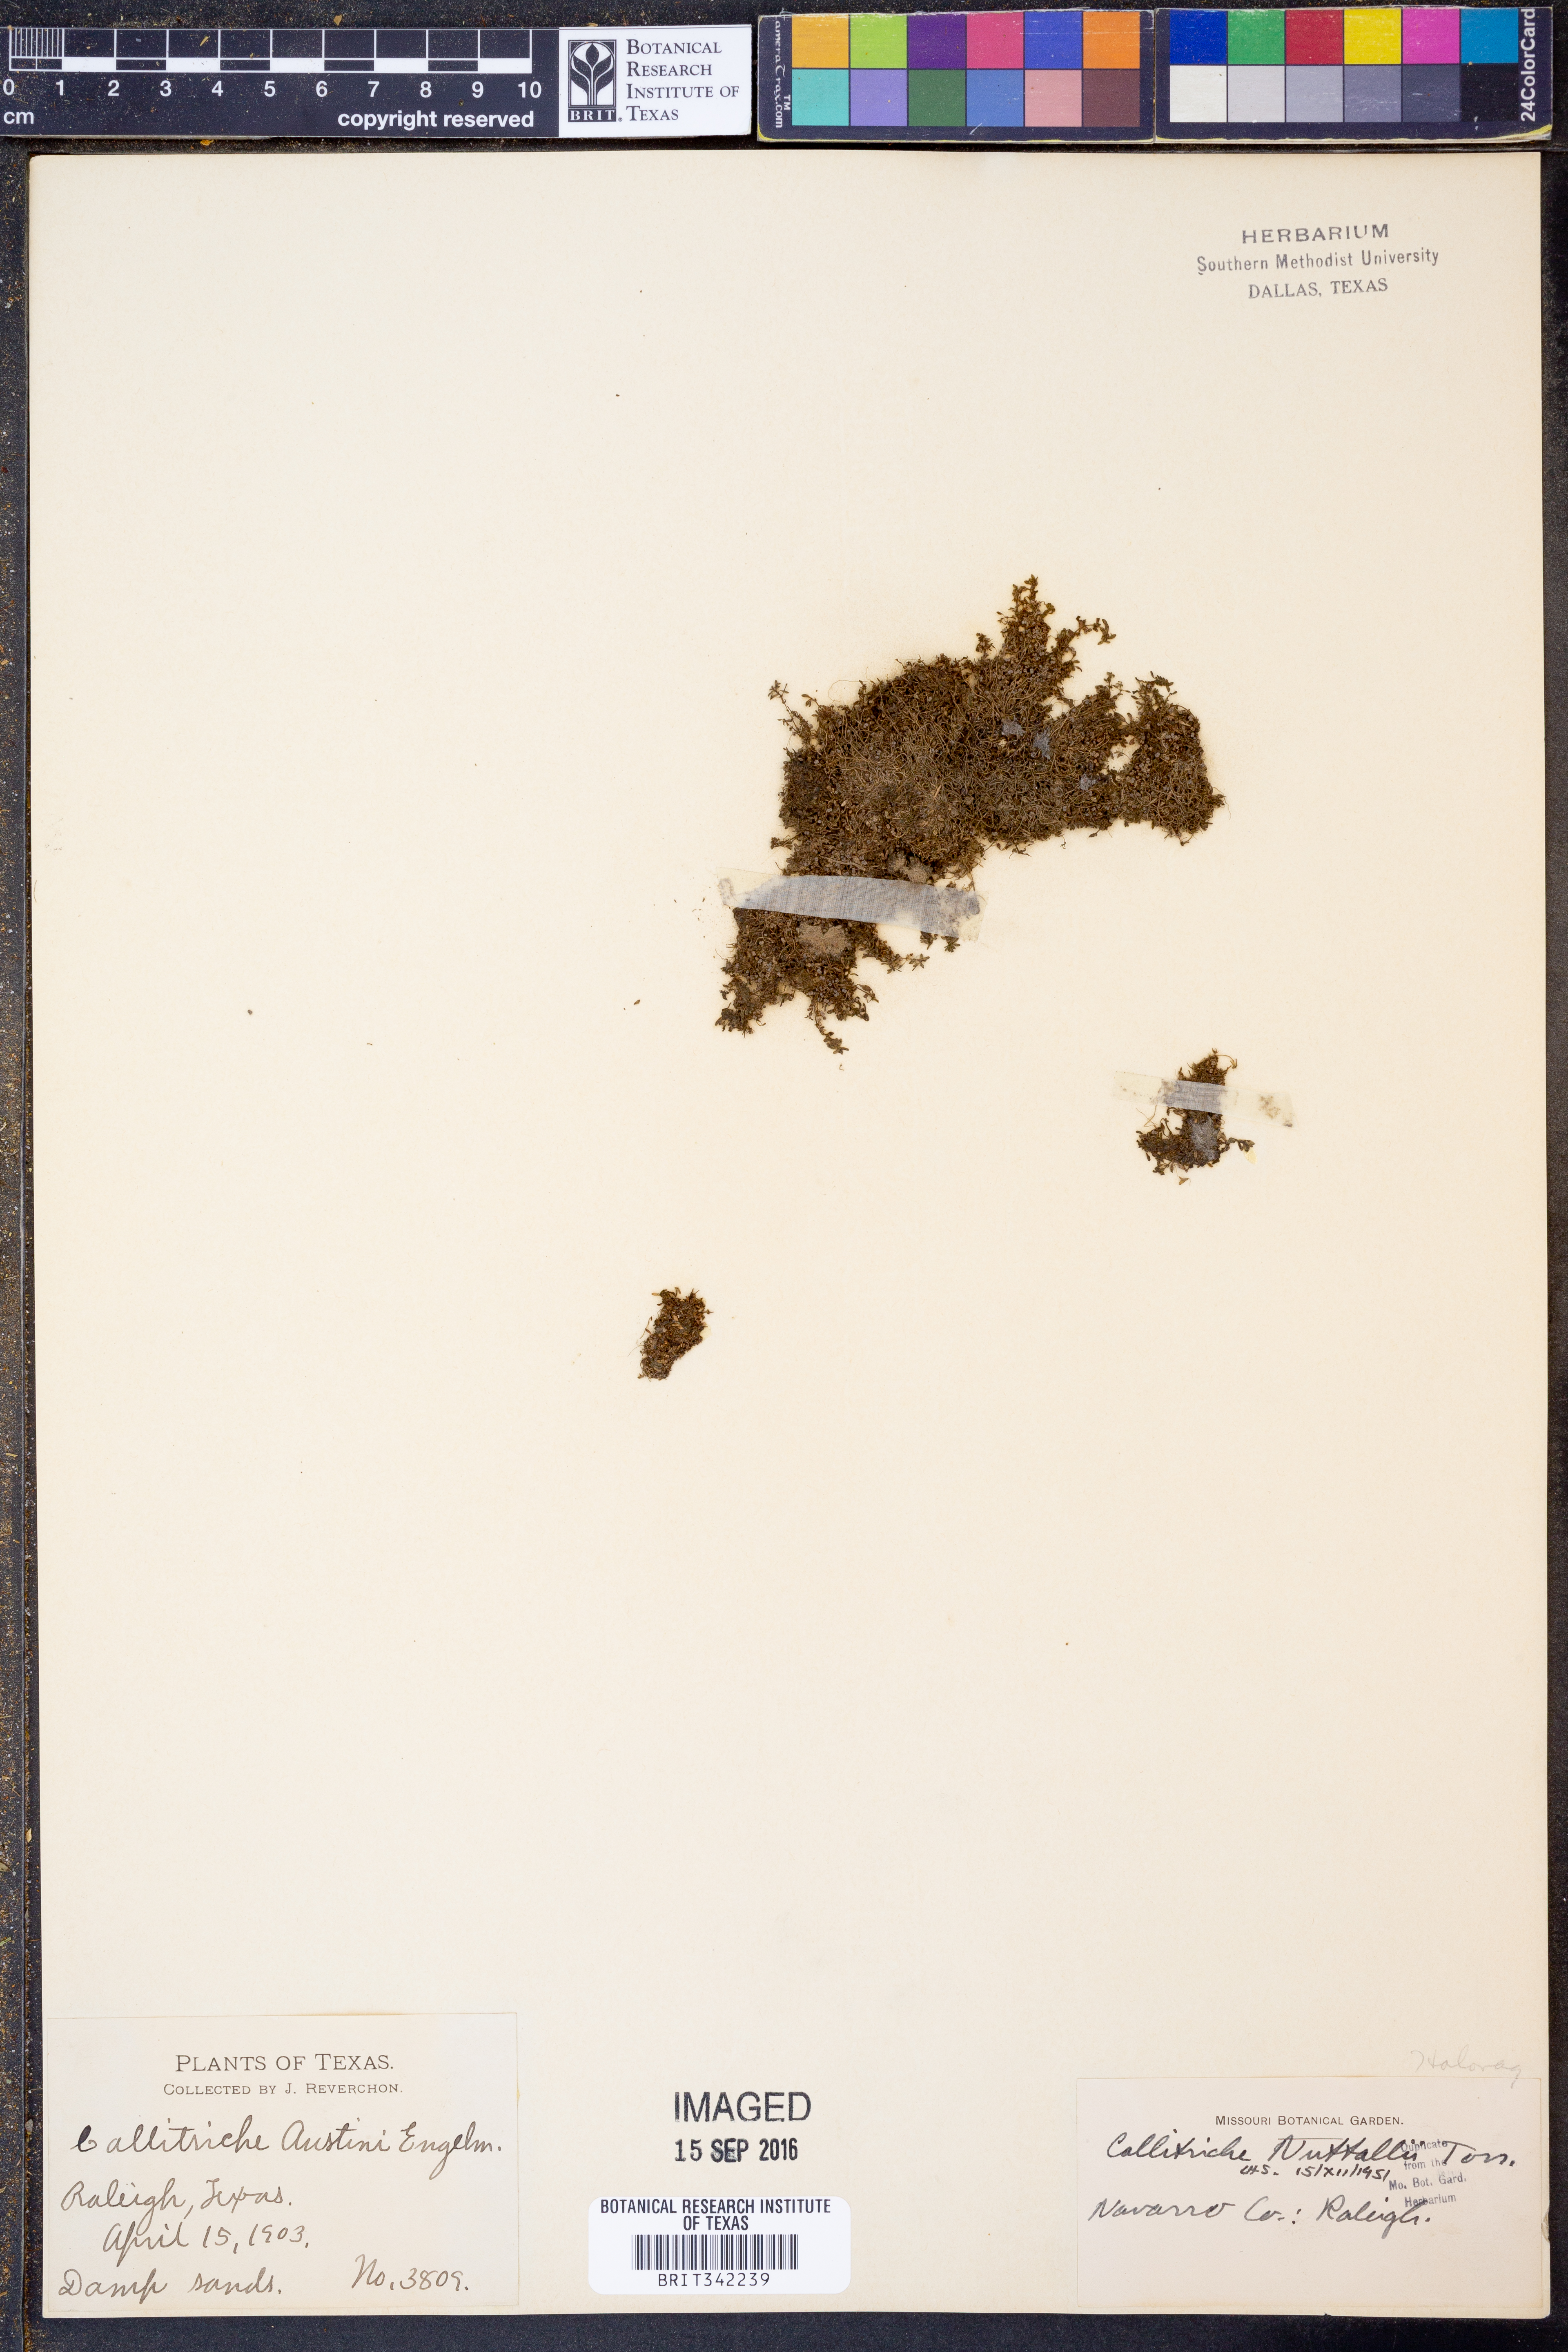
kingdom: Plantae
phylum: Tracheophyta
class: Magnoliopsida
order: Lamiales
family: Plantaginaceae
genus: Callitriche
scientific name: Callitriche pedunculosa
